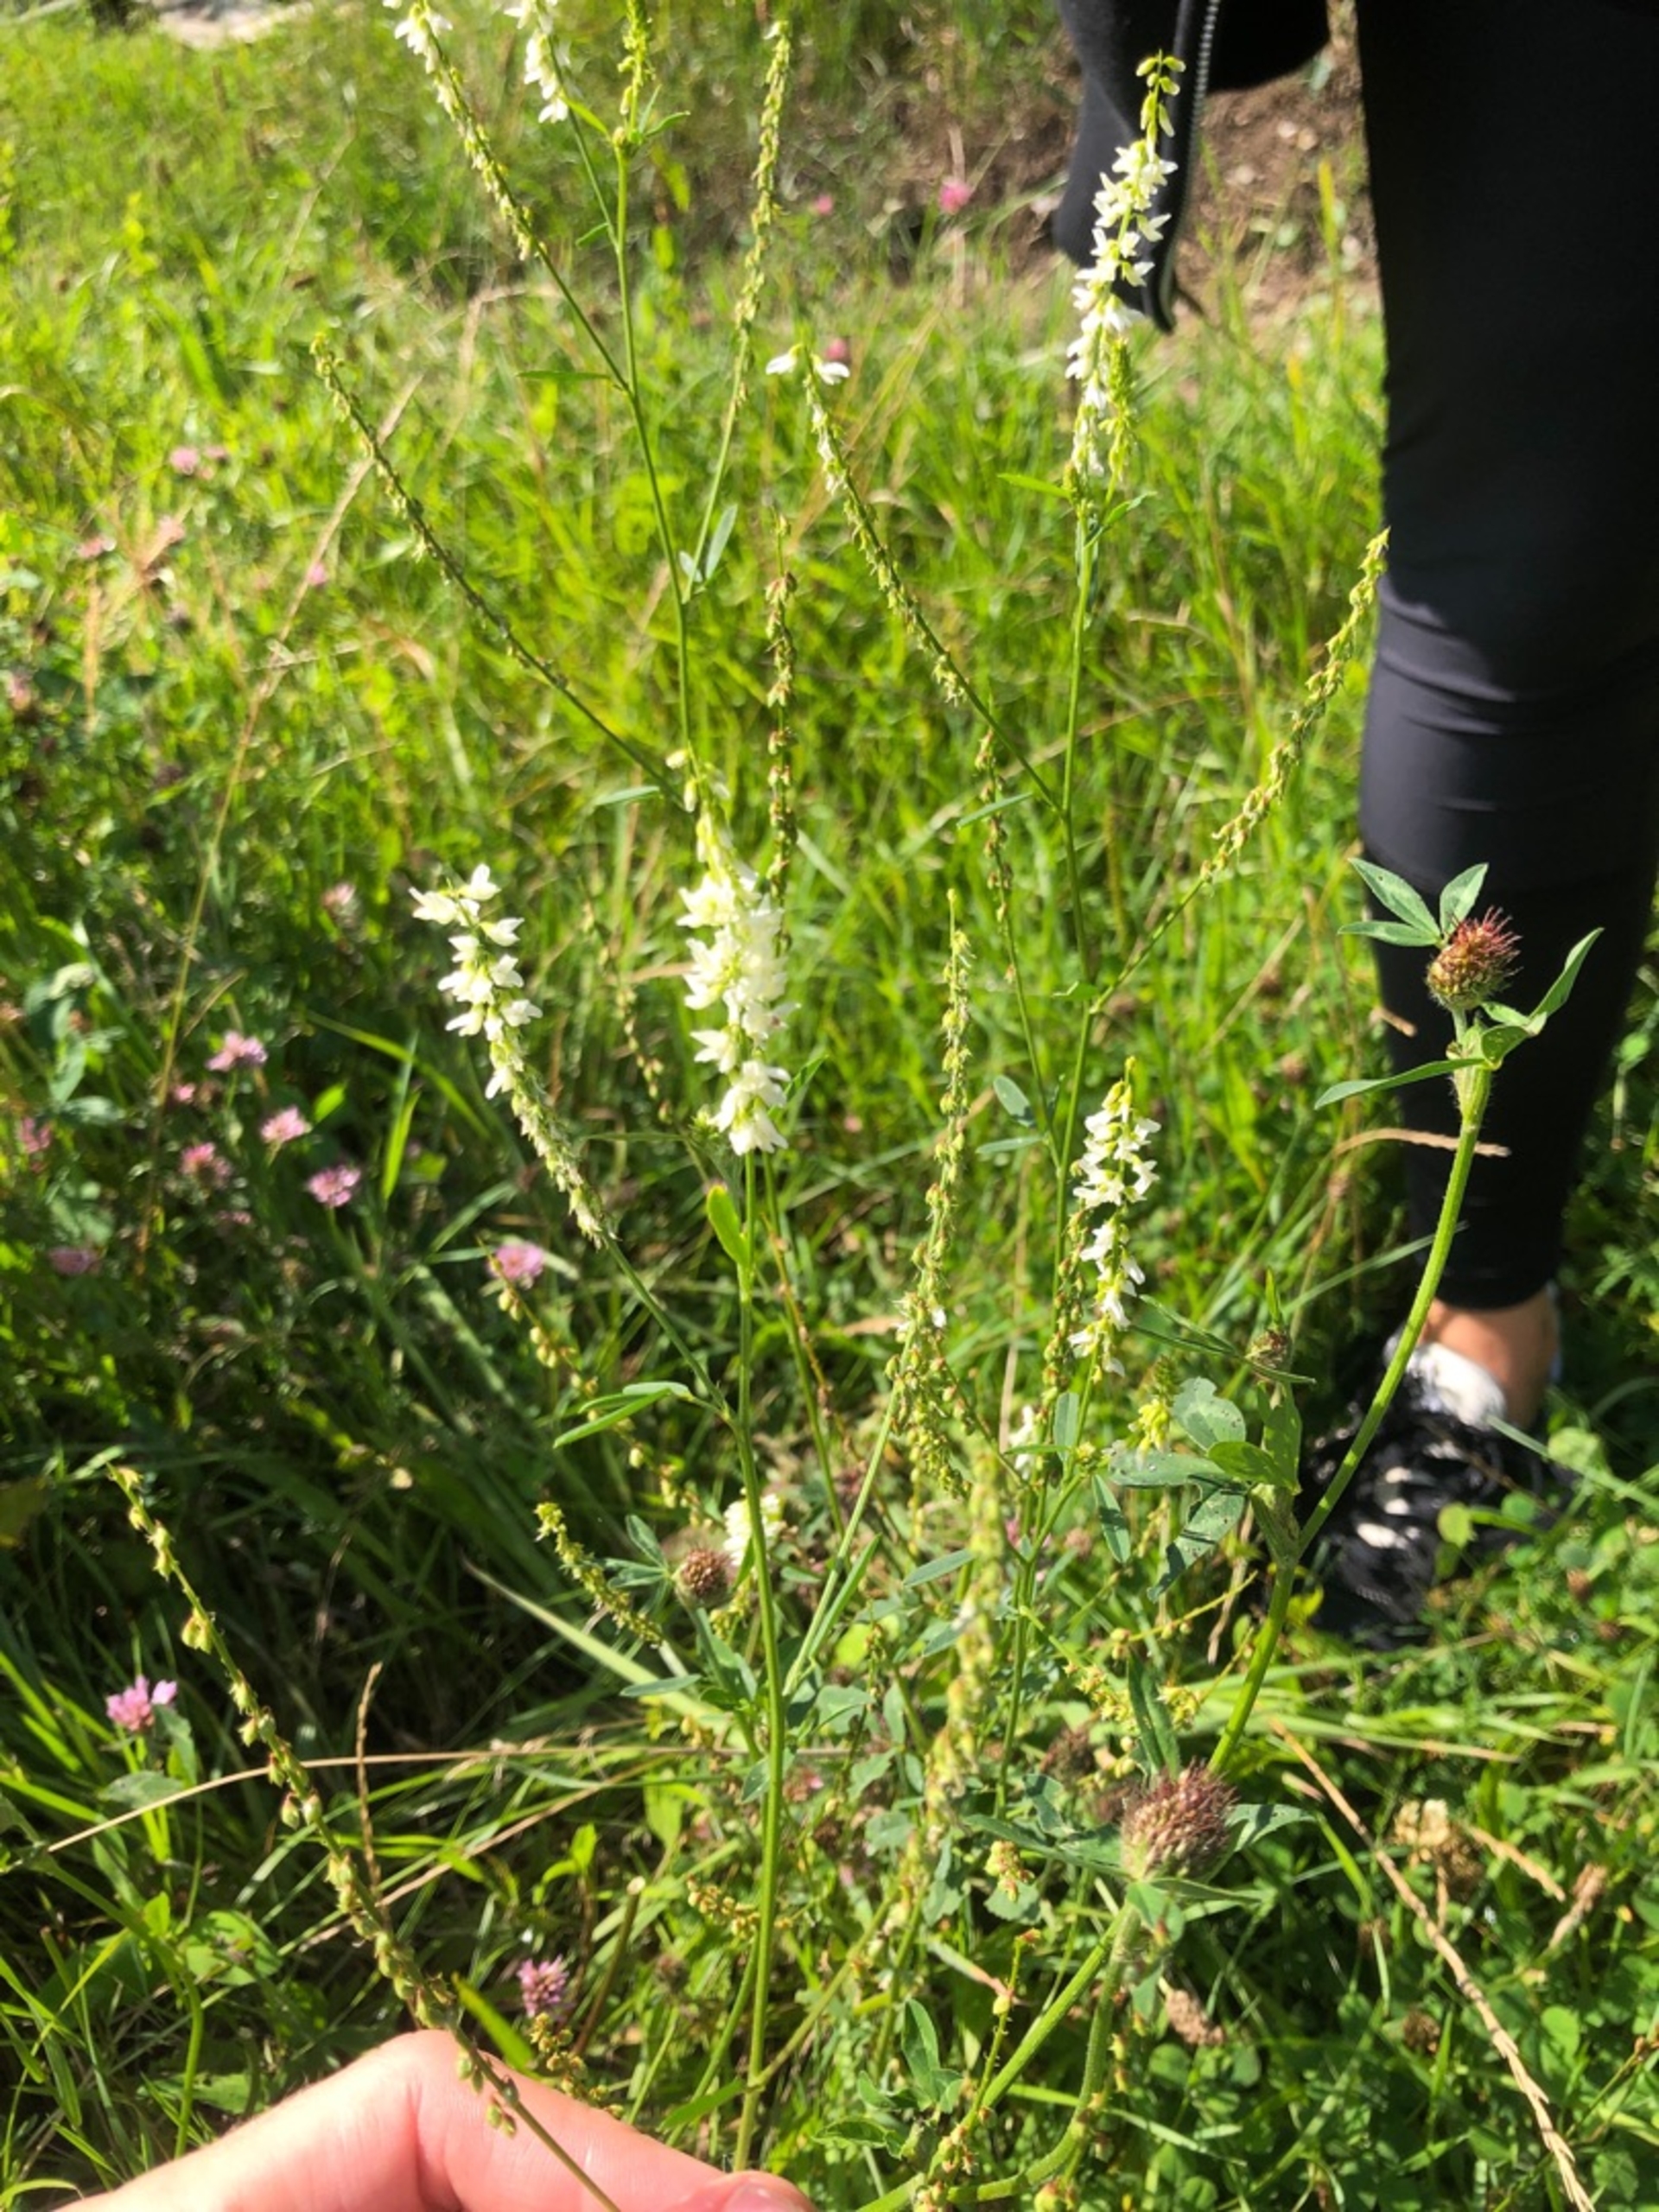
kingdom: Plantae
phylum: Tracheophyta
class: Magnoliopsida
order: Fabales
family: Fabaceae
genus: Melilotus
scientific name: Melilotus albus
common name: Hvid stenkløver
